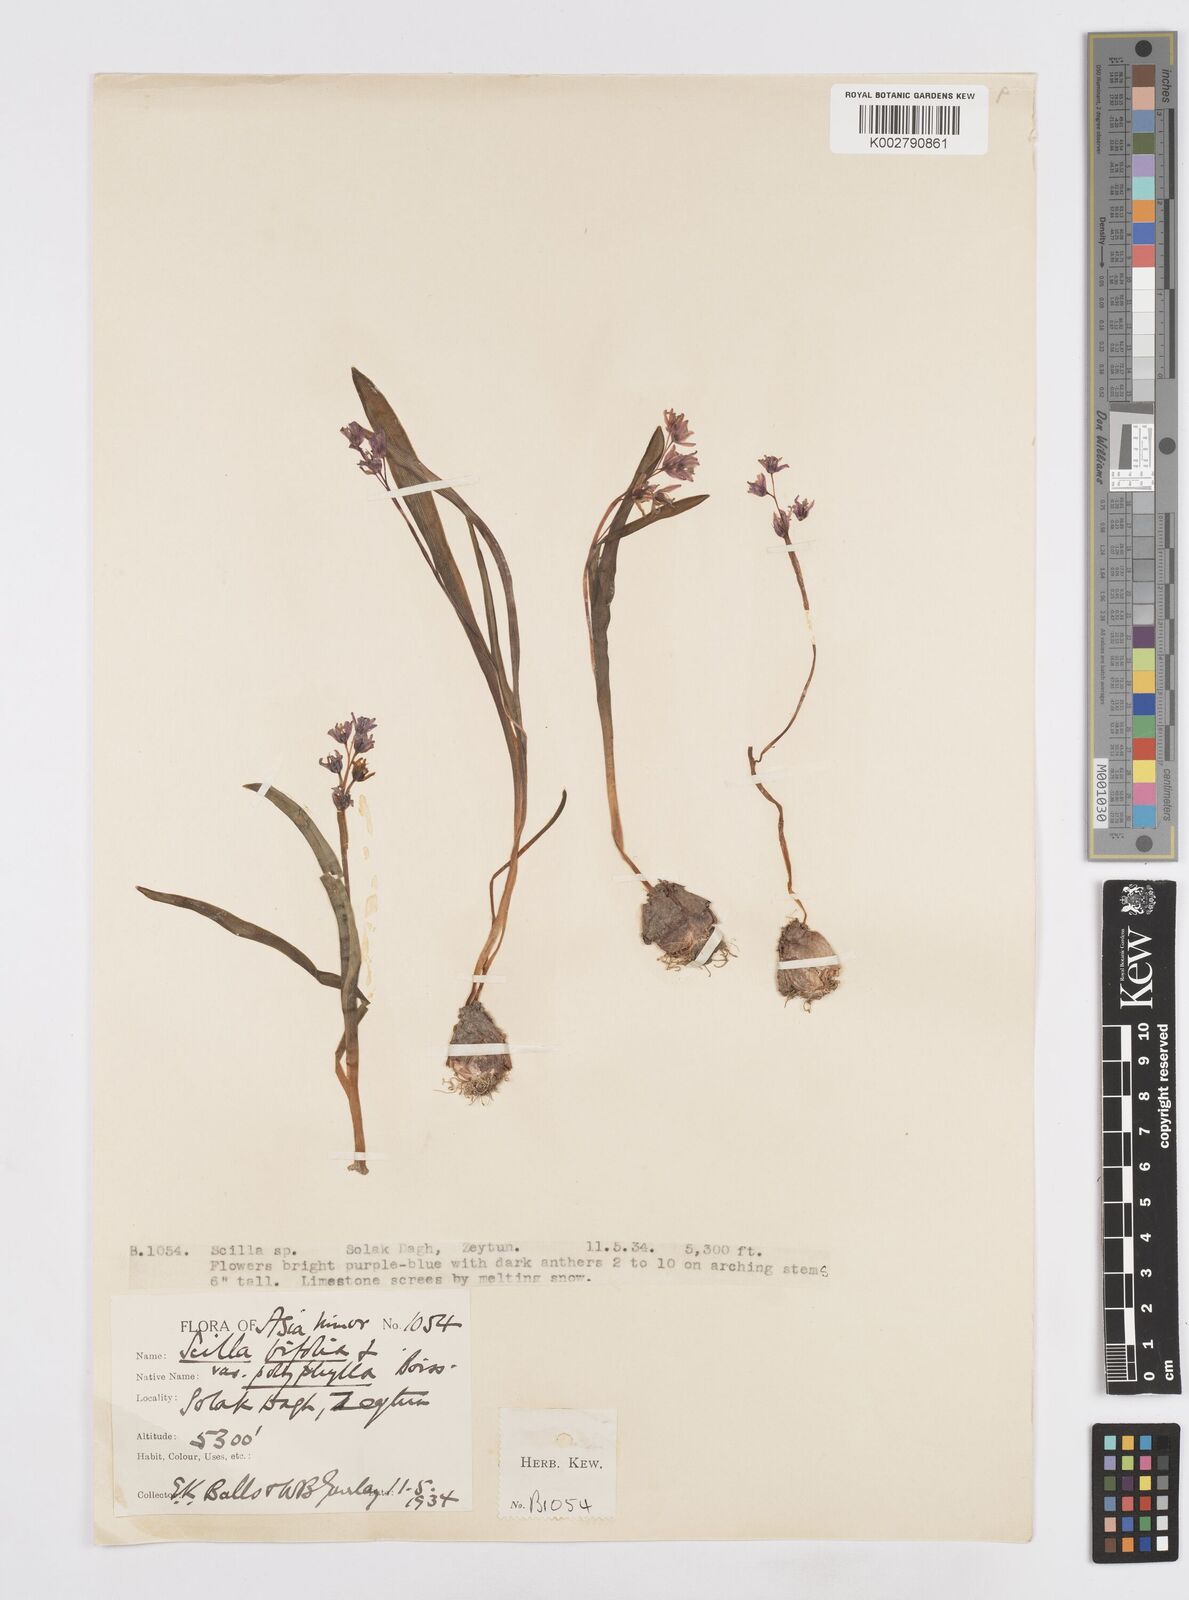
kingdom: Plantae
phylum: Tracheophyta
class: Liliopsida
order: Asparagales
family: Asparagaceae
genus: Scilla
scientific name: Scilla bifolia
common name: Alpine squill
